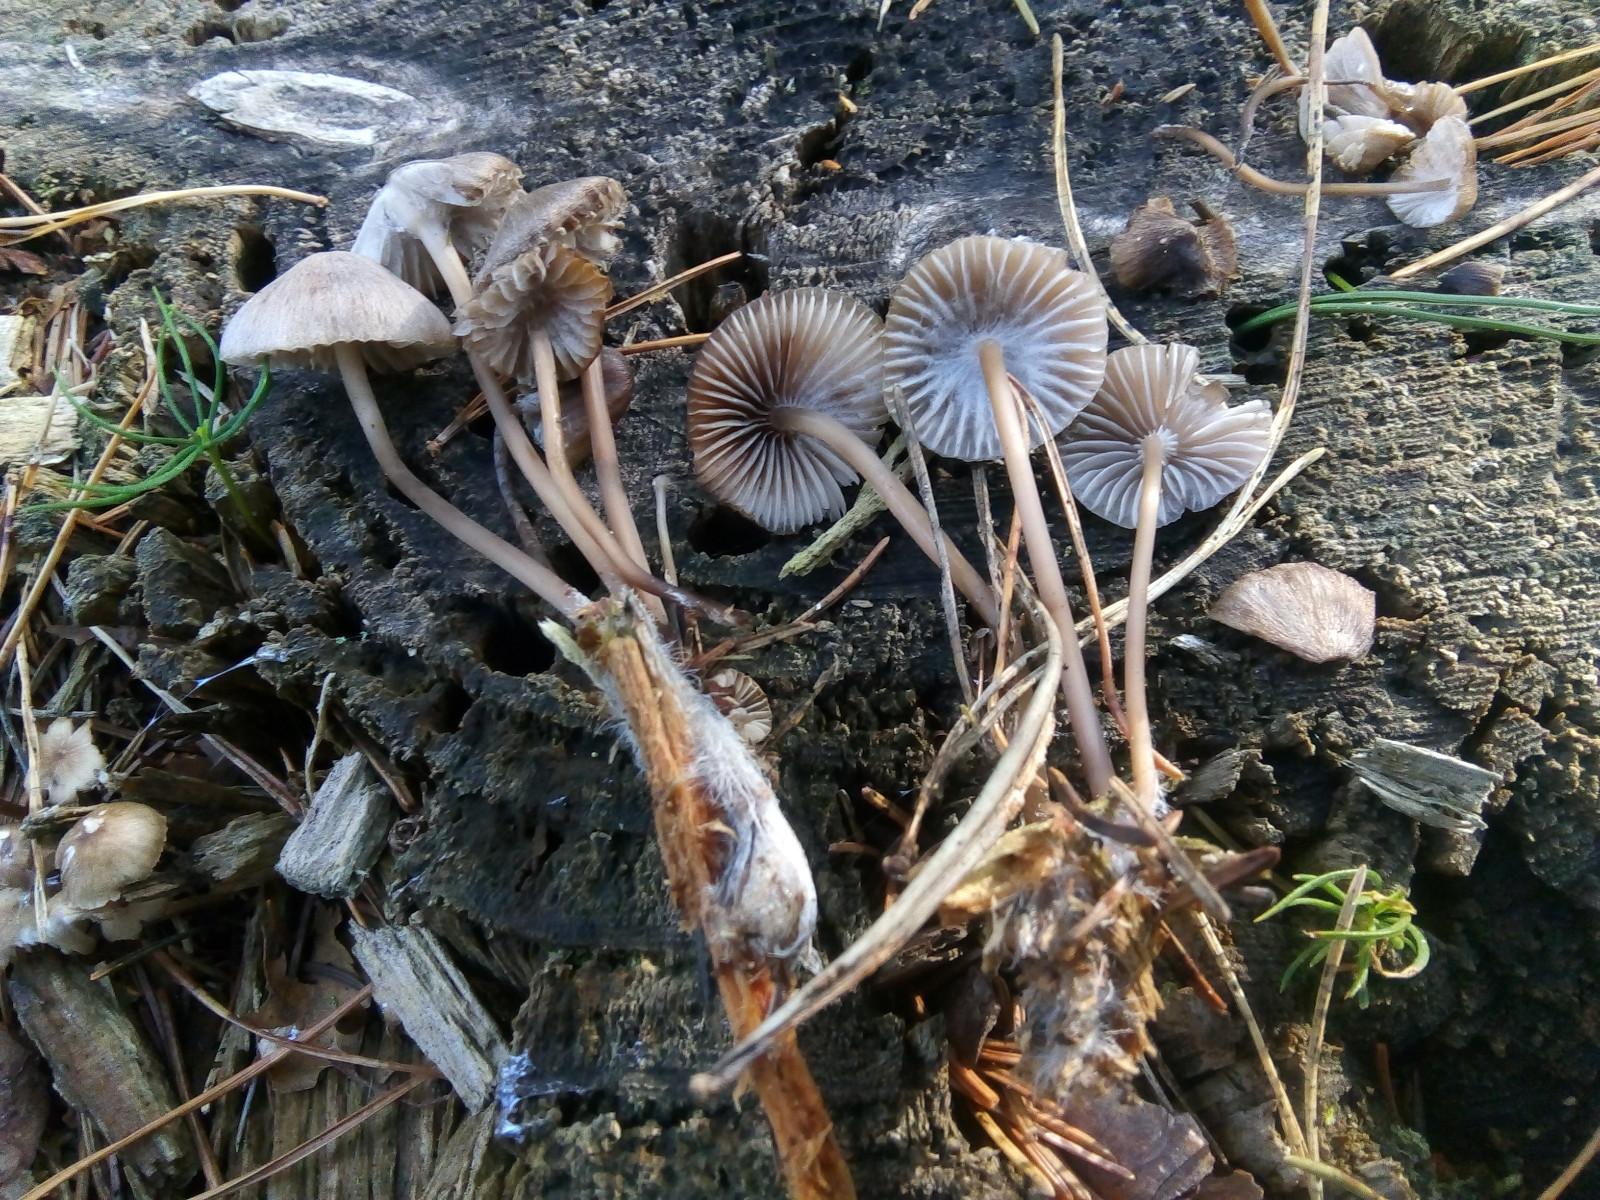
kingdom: Fungi
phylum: Basidiomycota
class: Agaricomycetes
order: Agaricales
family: Mycenaceae
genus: Mycena
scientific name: Mycena maculata
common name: rødplettet huesvamp
